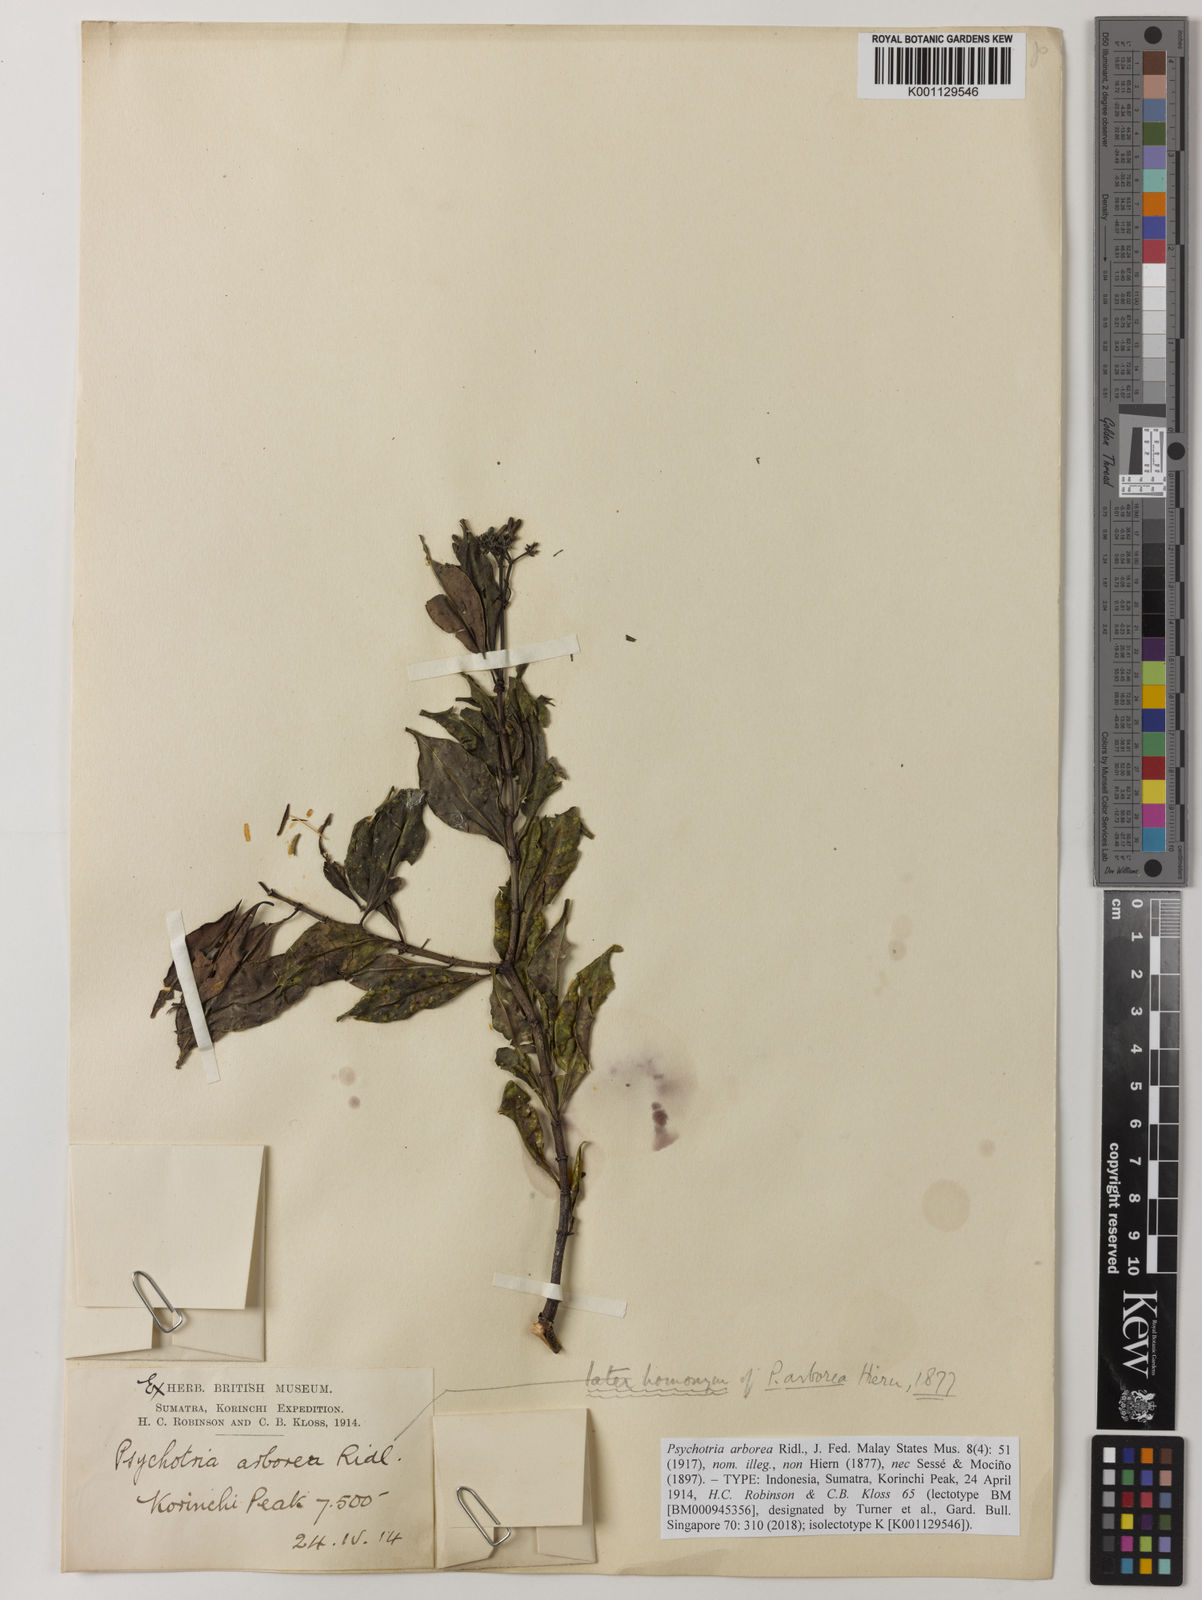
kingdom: Plantae
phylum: Tracheophyta
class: Magnoliopsida
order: Gentianales
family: Rubiaceae
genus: Psychotria
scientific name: Psychotria arborea
